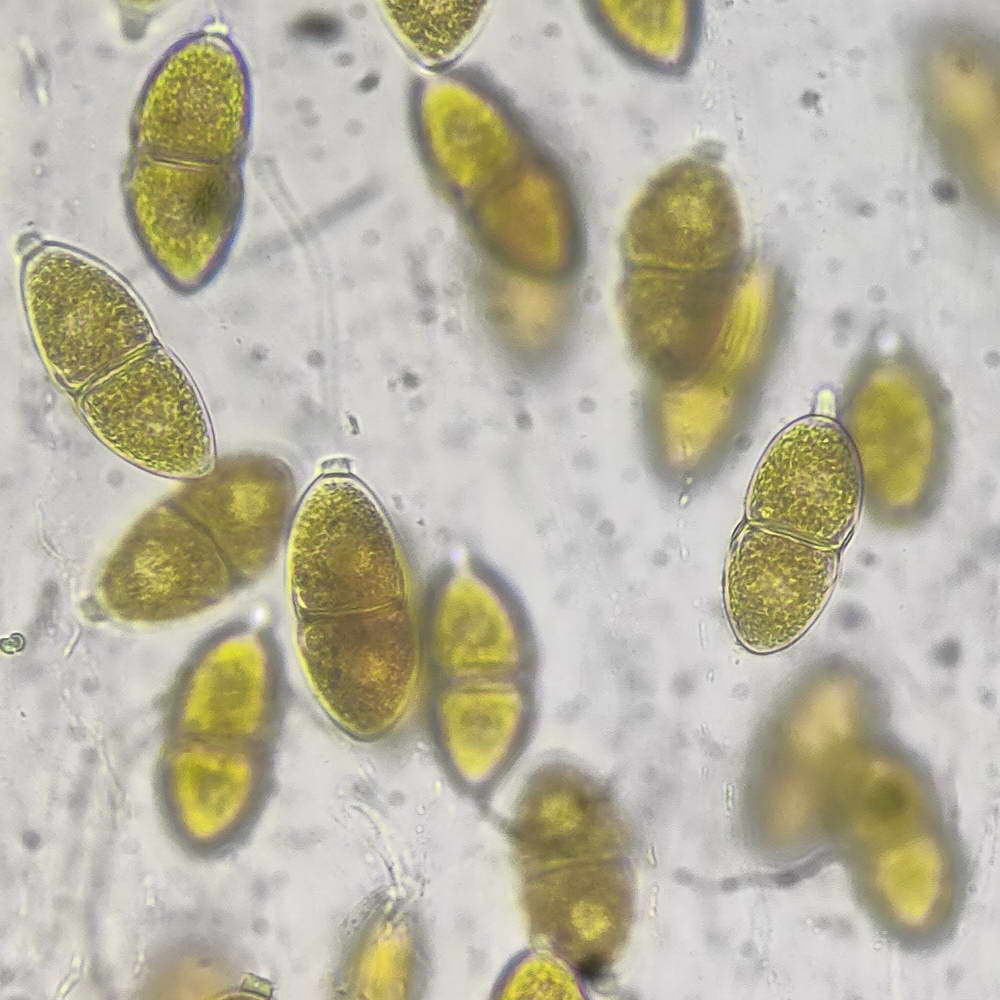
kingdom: Fungi
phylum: Basidiomycota
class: Pucciniomycetes
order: Pucciniales
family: Gymnosporangiaceae
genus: Gymnosporangium
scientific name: Gymnosporangium sabinae
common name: pæregitter-bævrerust
